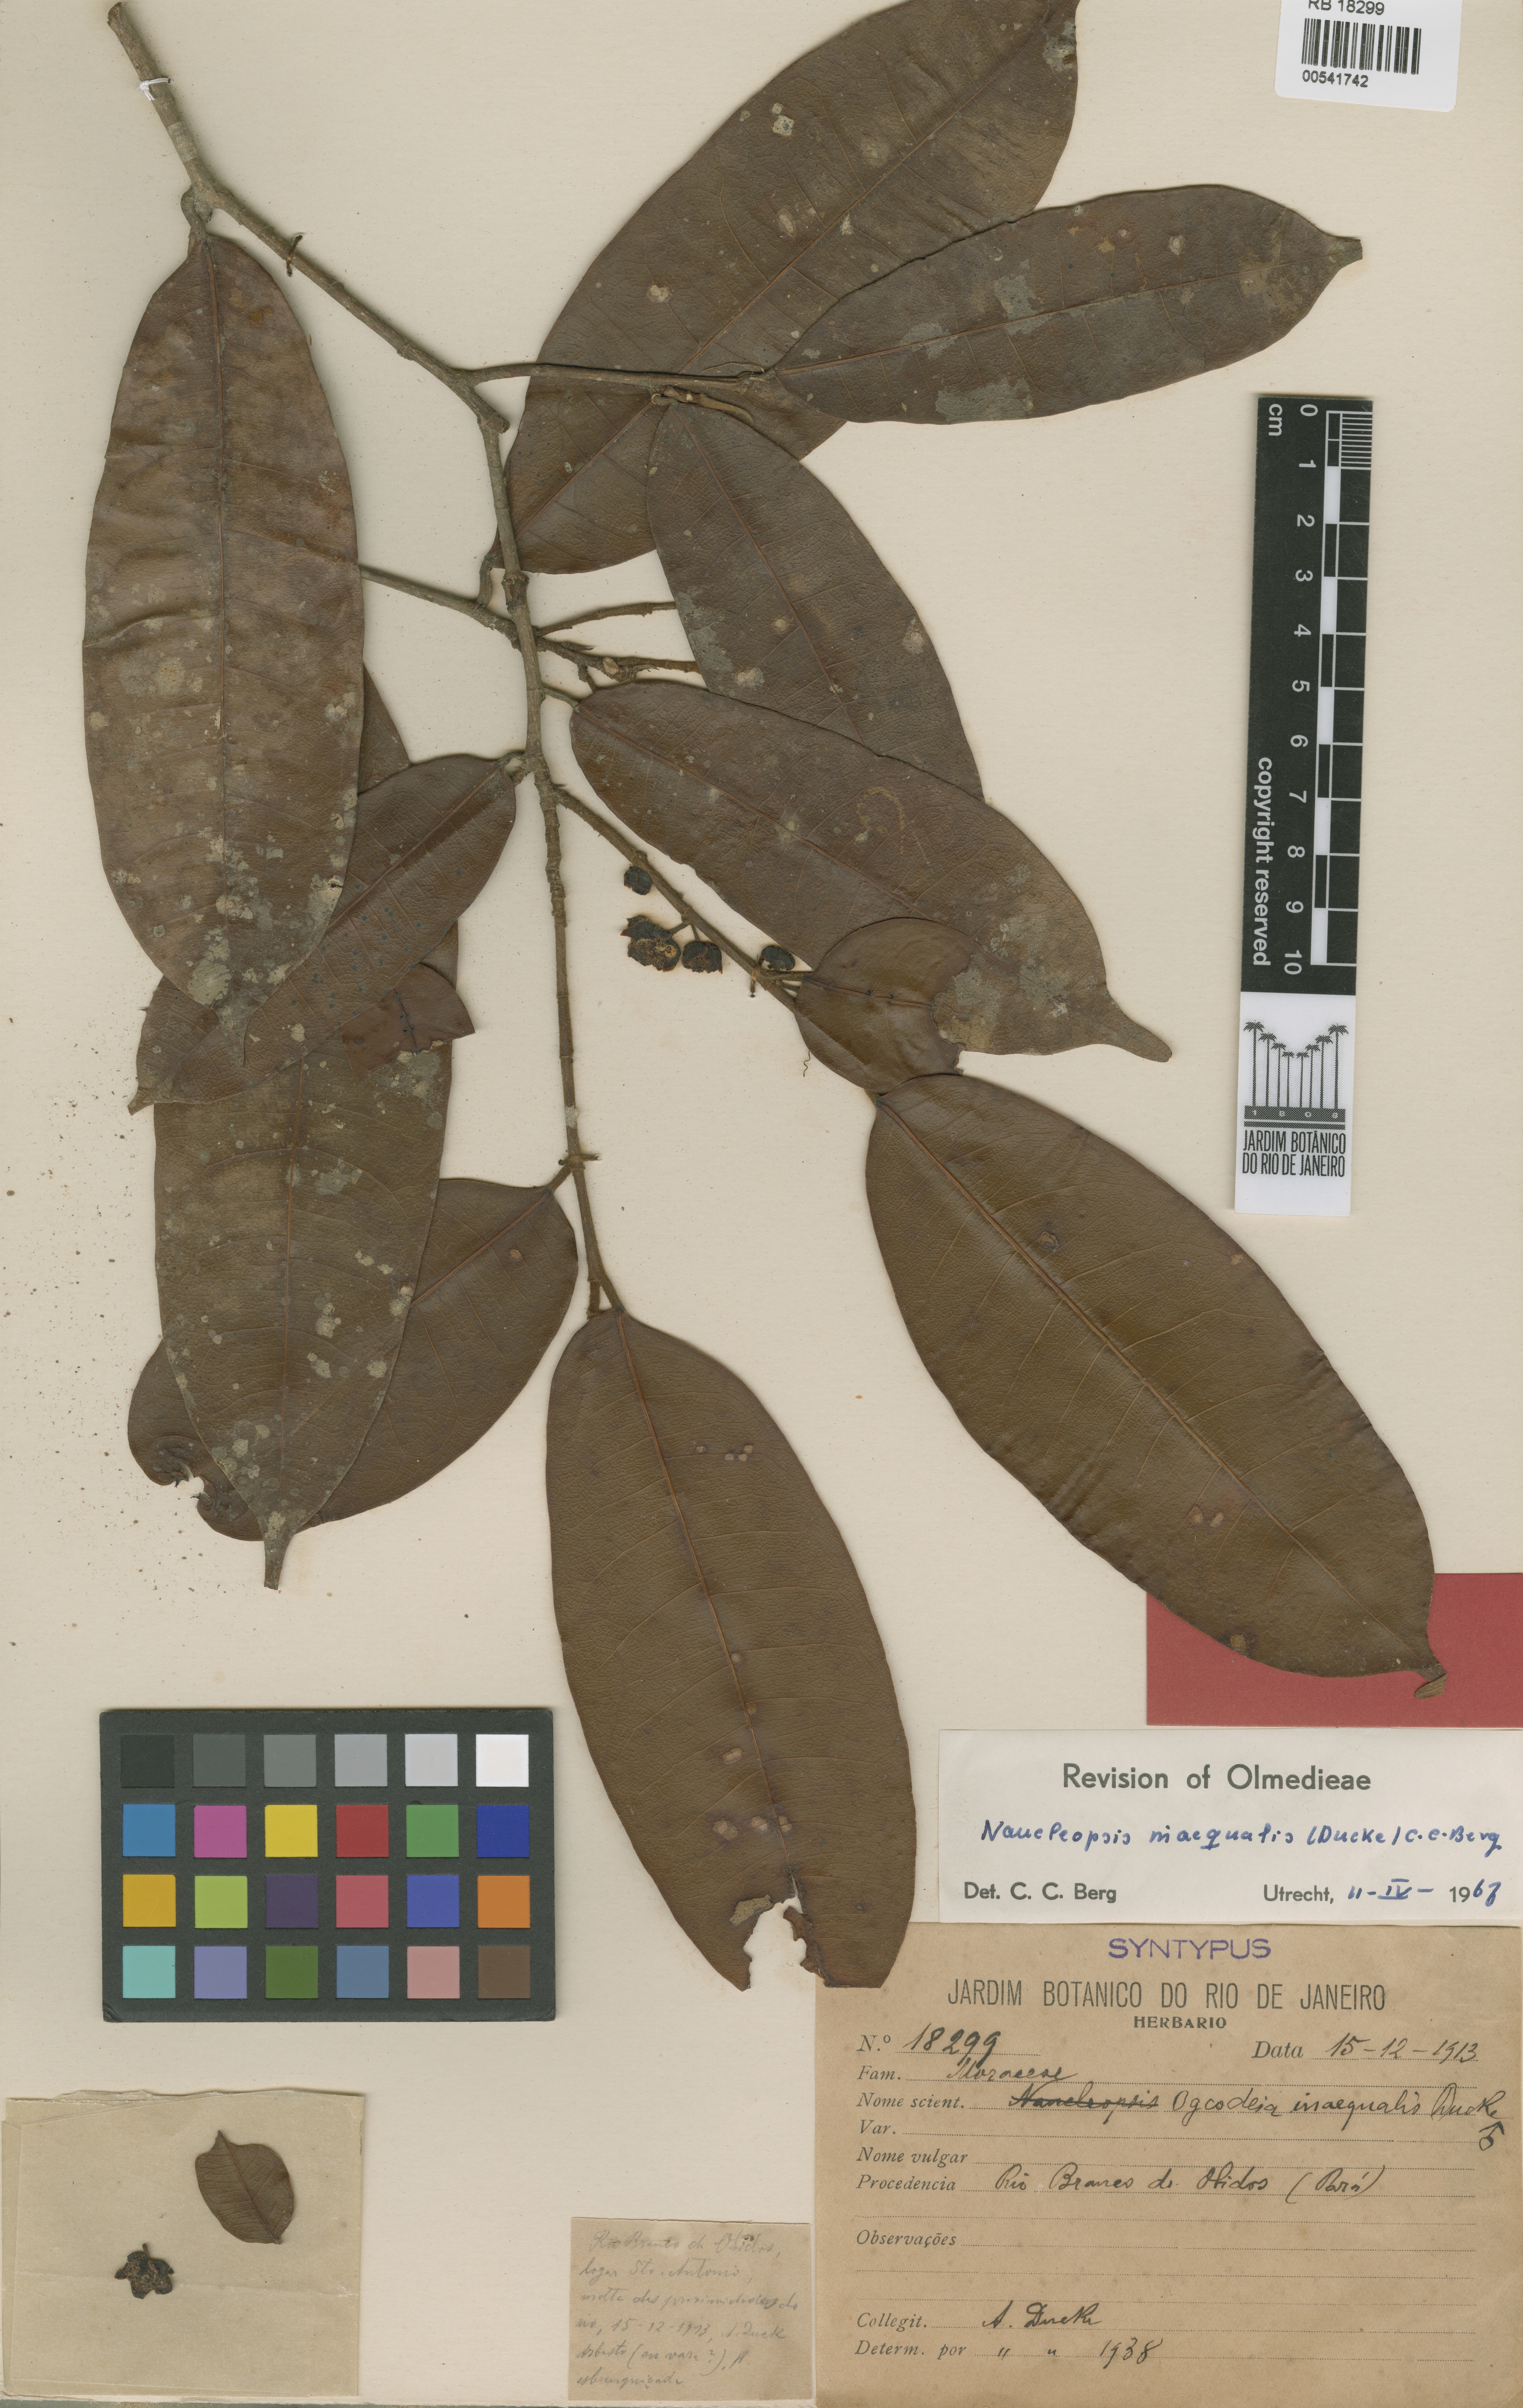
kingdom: Plantae
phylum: Tracheophyta
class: Magnoliopsida
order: Rosales
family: Moraceae
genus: Naucleopsis
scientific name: Naucleopsis inaequalis
